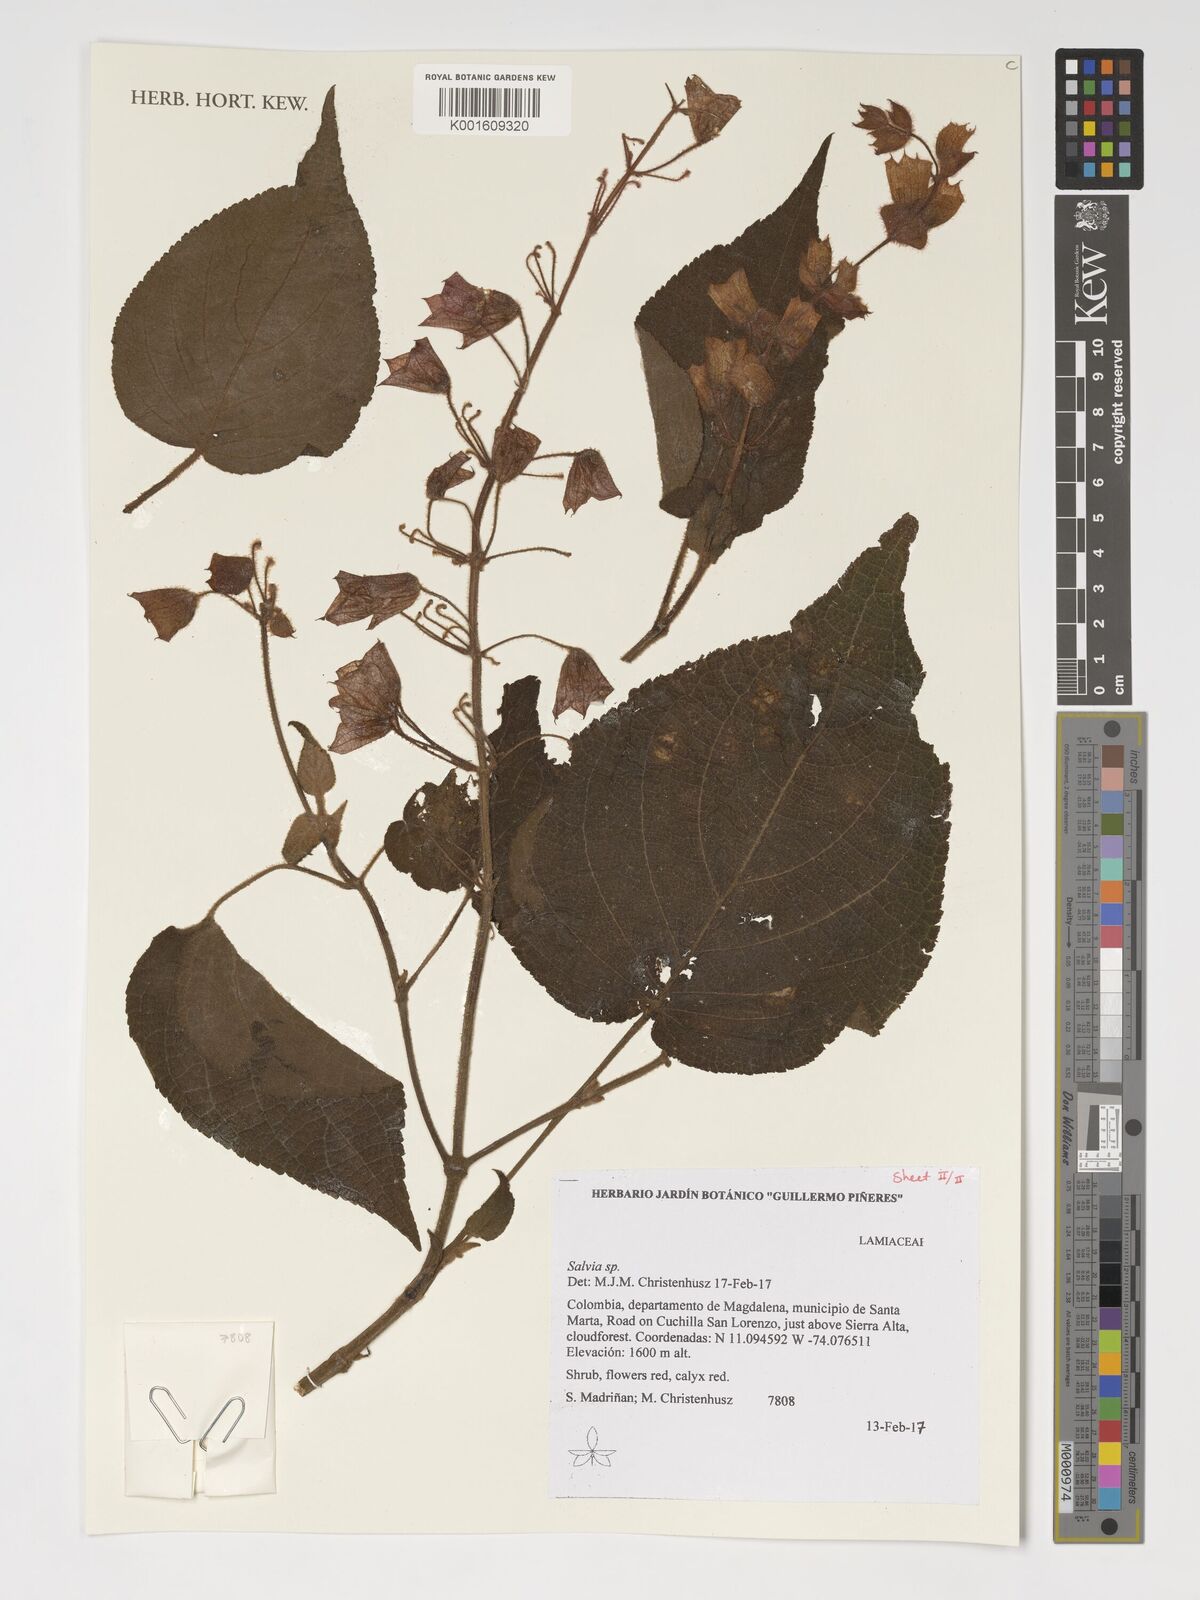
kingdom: Plantae
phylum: Tracheophyta
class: Magnoliopsida
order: Lamiales
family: Lamiaceae
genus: Salvia
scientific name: Salvia
